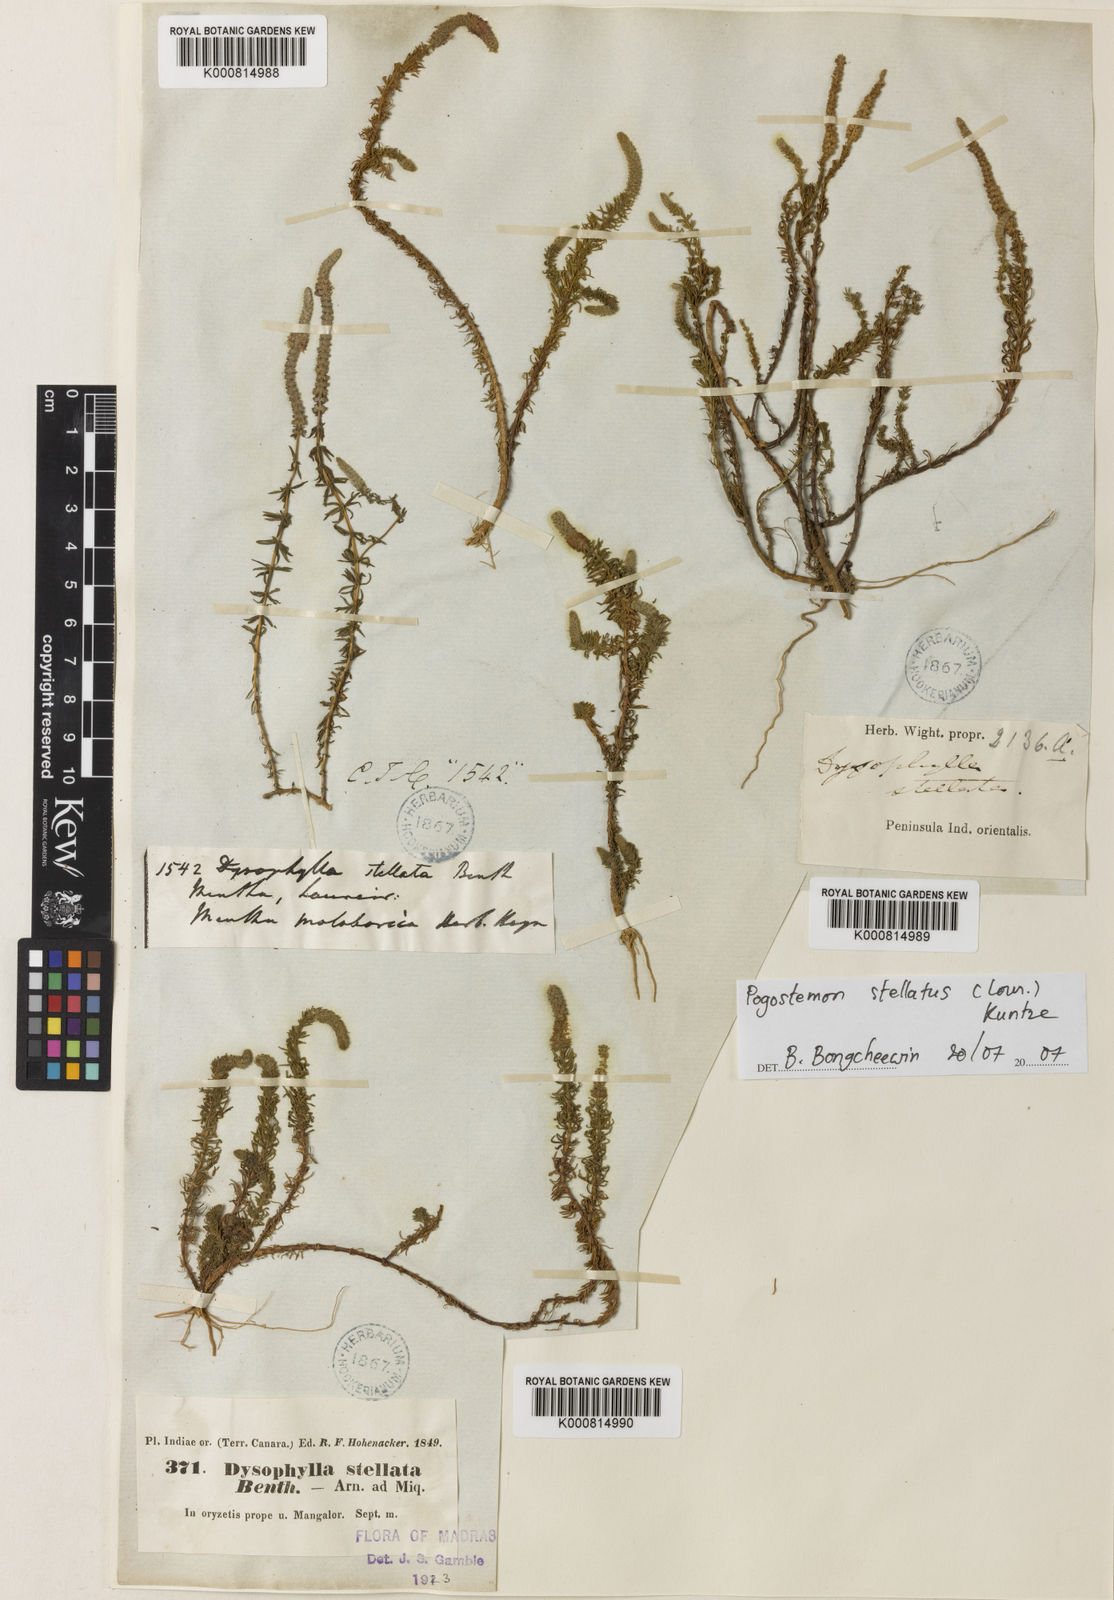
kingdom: Plantae
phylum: Tracheophyta
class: Magnoliopsida
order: Lamiales
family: Lamiaceae
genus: Pogostemon
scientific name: Pogostemon stellatus
